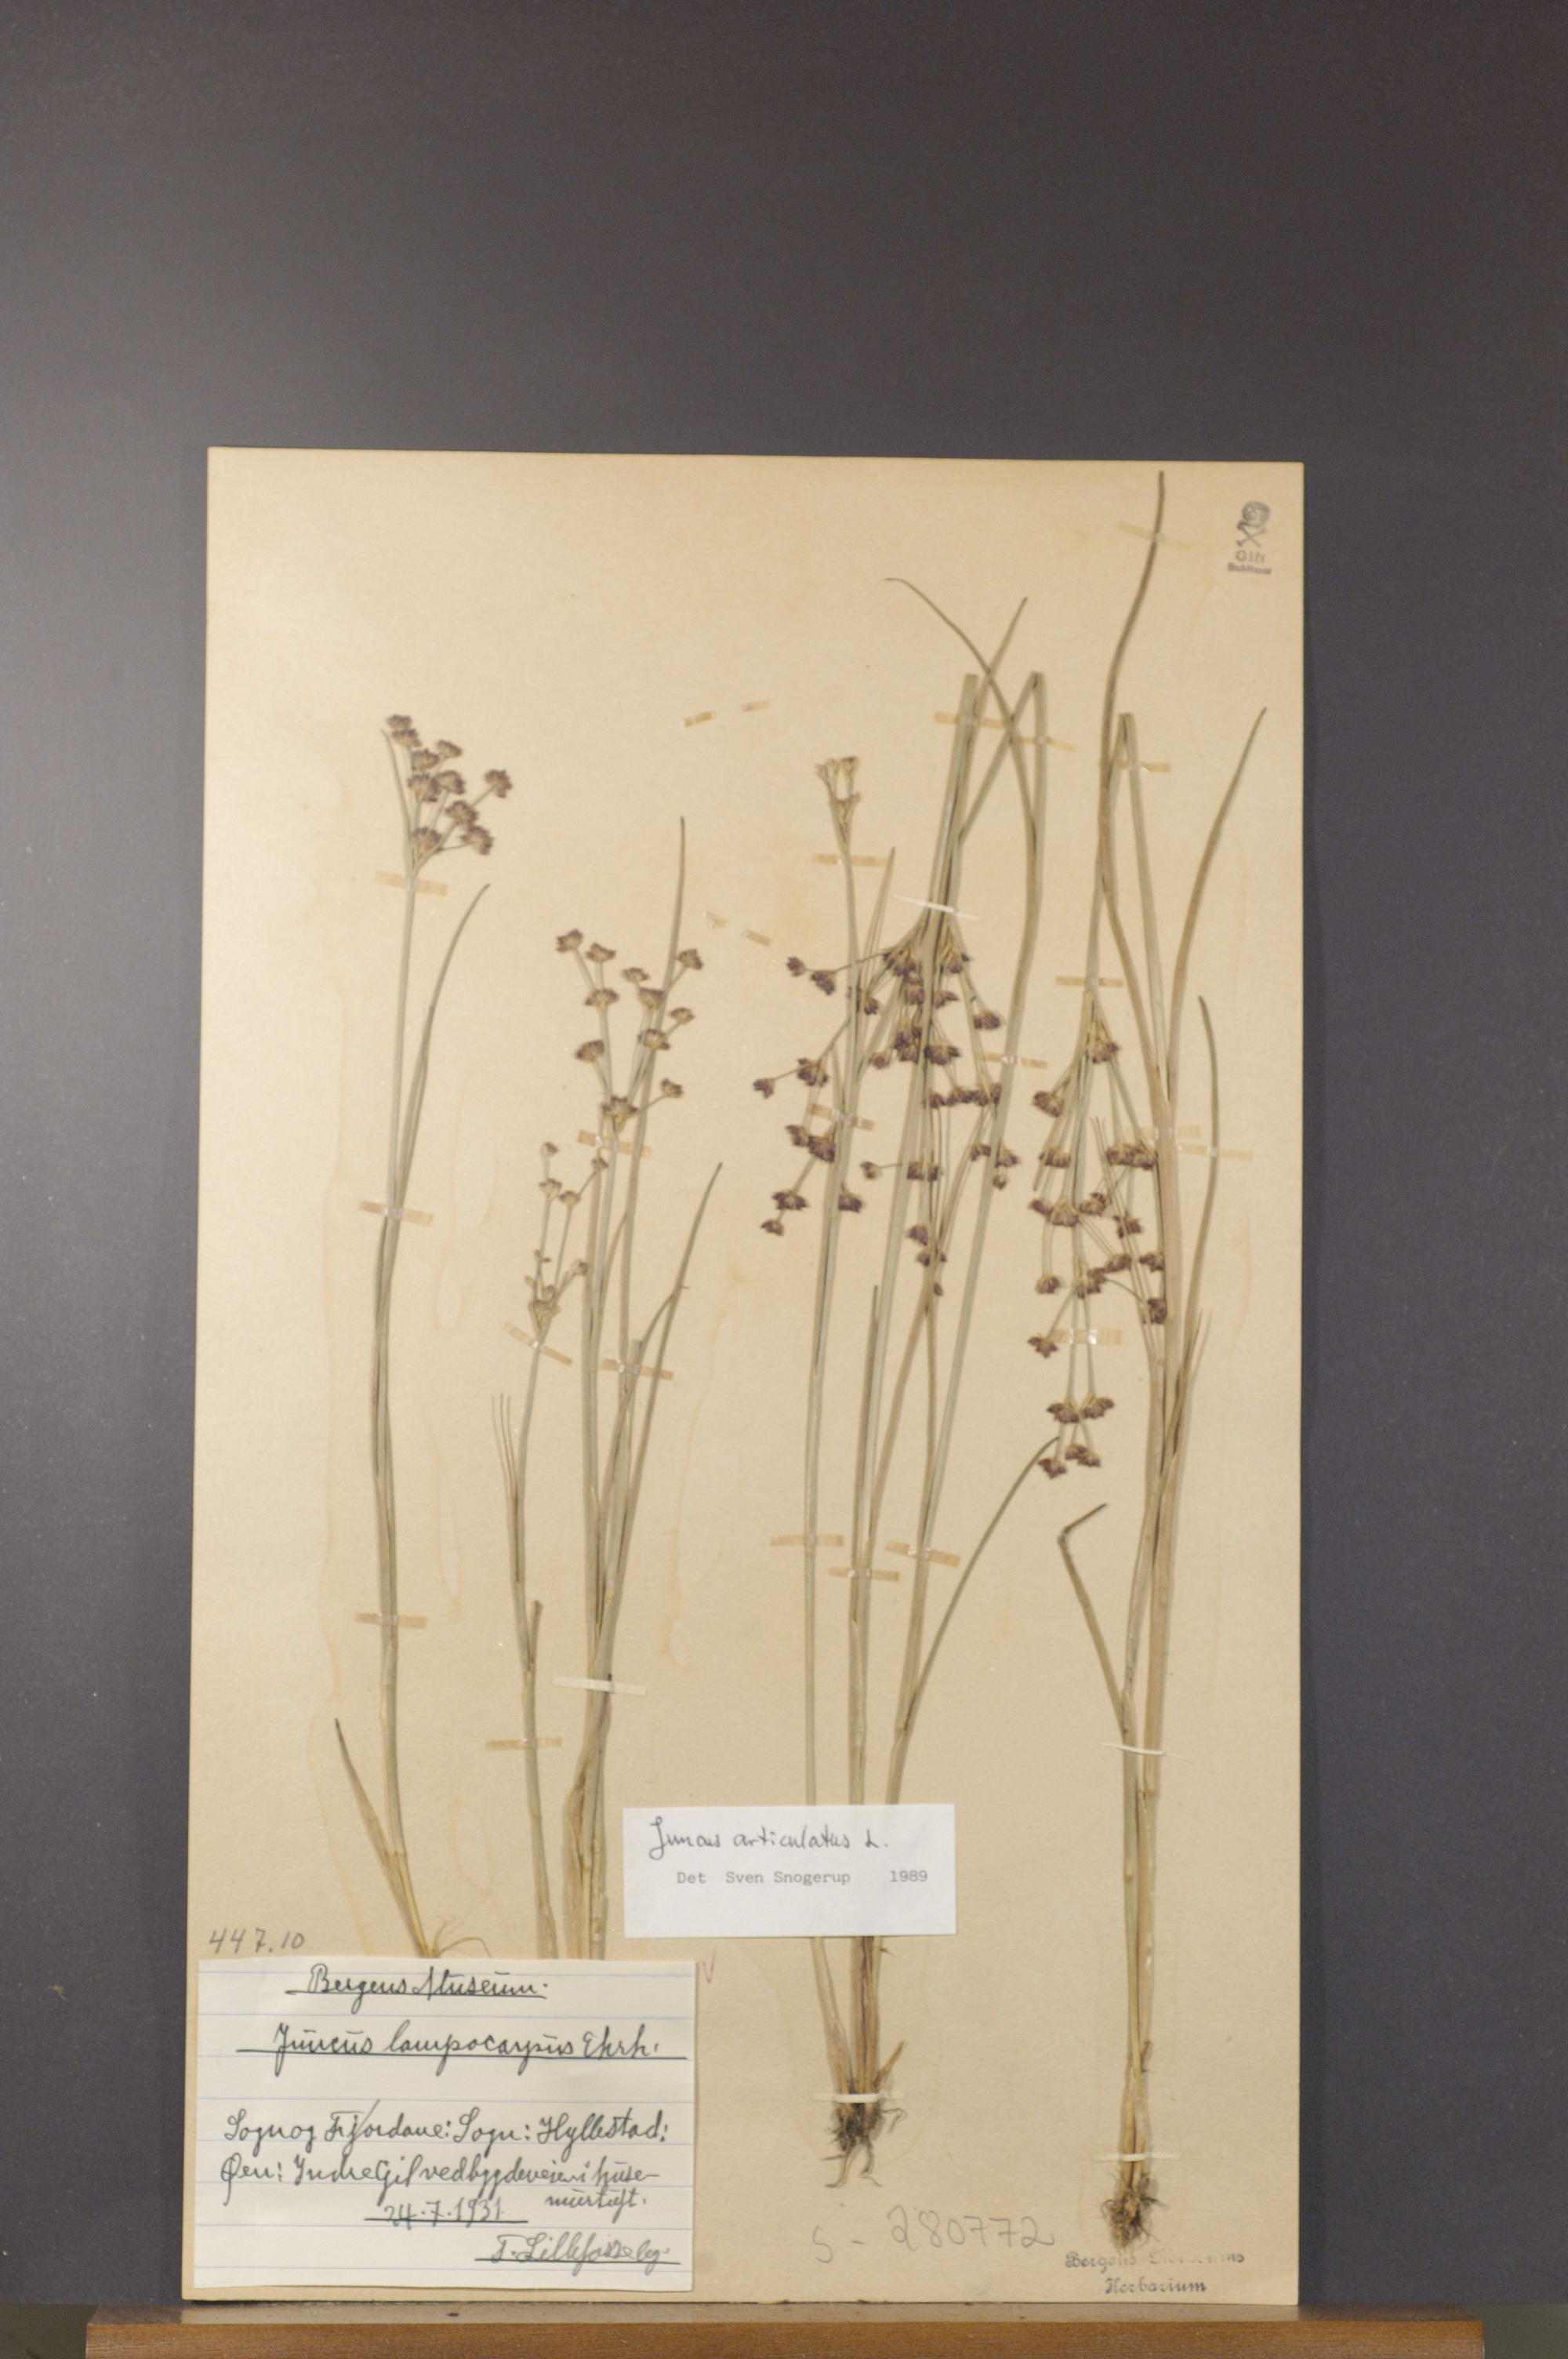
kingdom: Plantae
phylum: Tracheophyta
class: Liliopsida
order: Poales
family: Juncaceae
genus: Juncus
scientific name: Juncus articulatus
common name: Jointed rush
